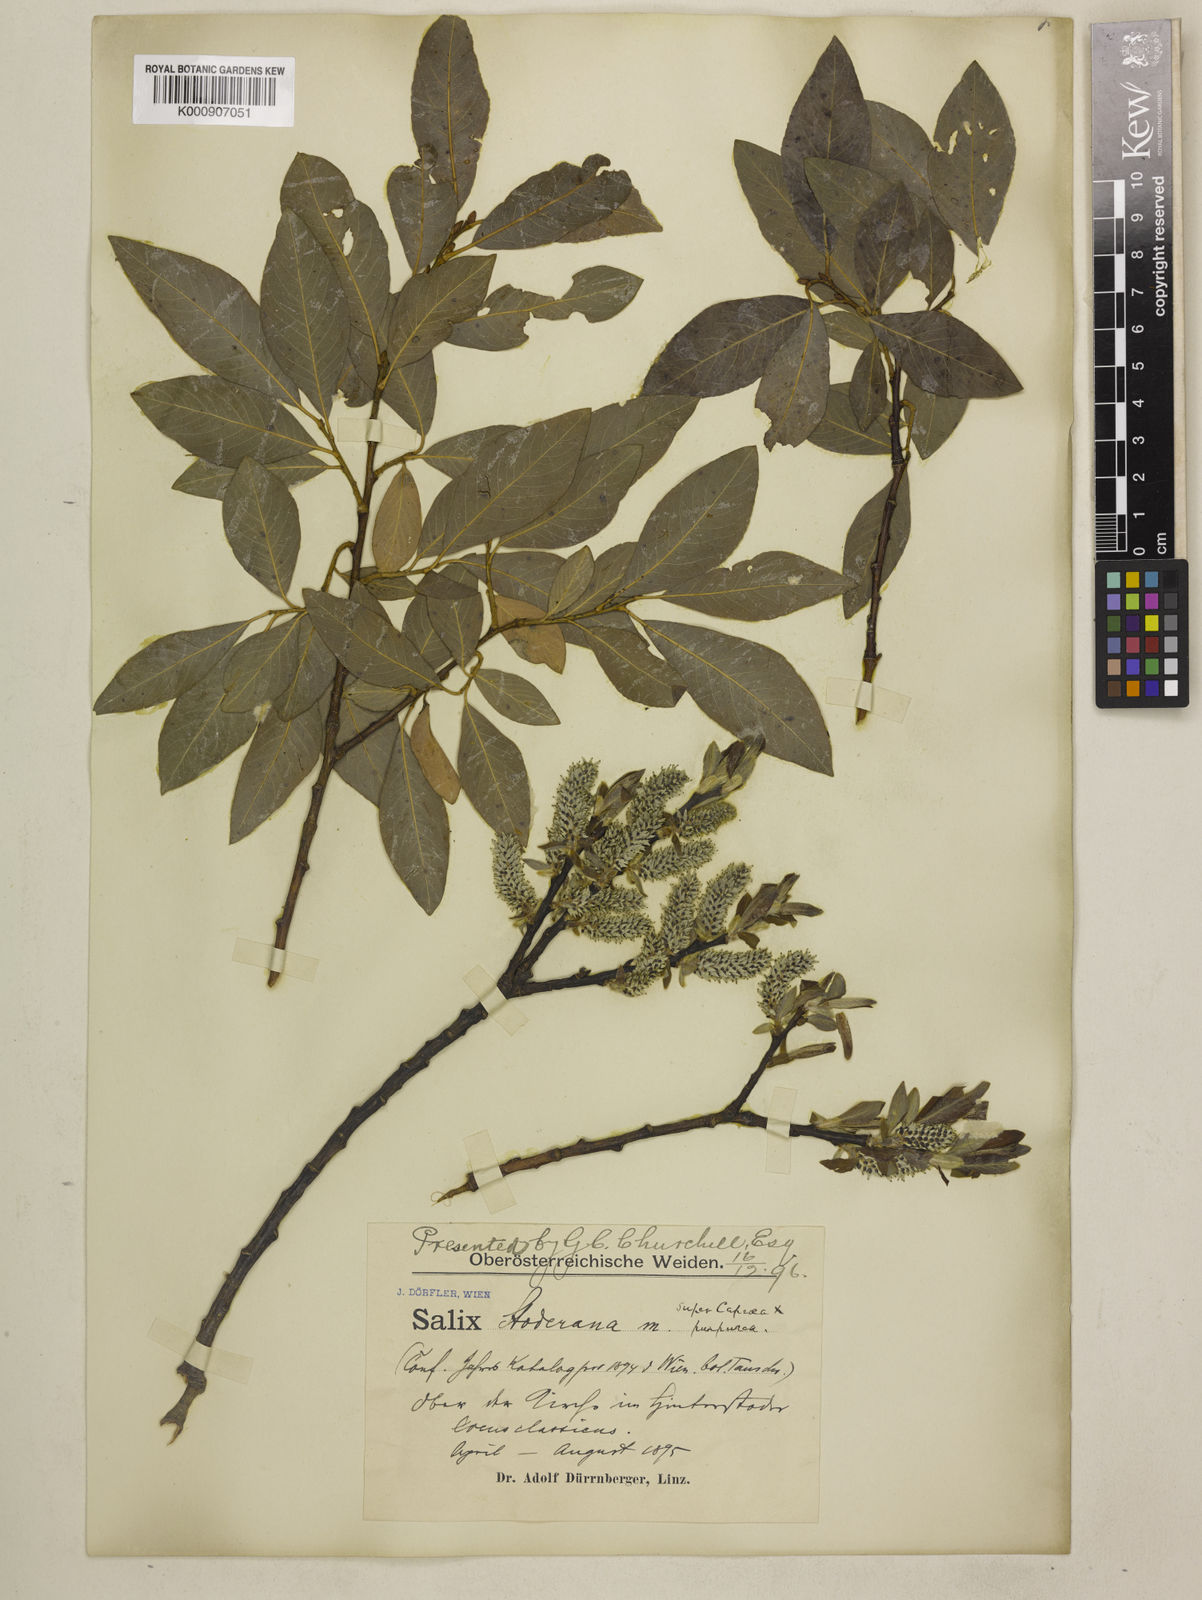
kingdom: Plantae
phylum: Tracheophyta
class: Magnoliopsida
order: Malpighiales
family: Salicaceae
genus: Salix
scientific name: Salix caprea
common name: Goat willow
